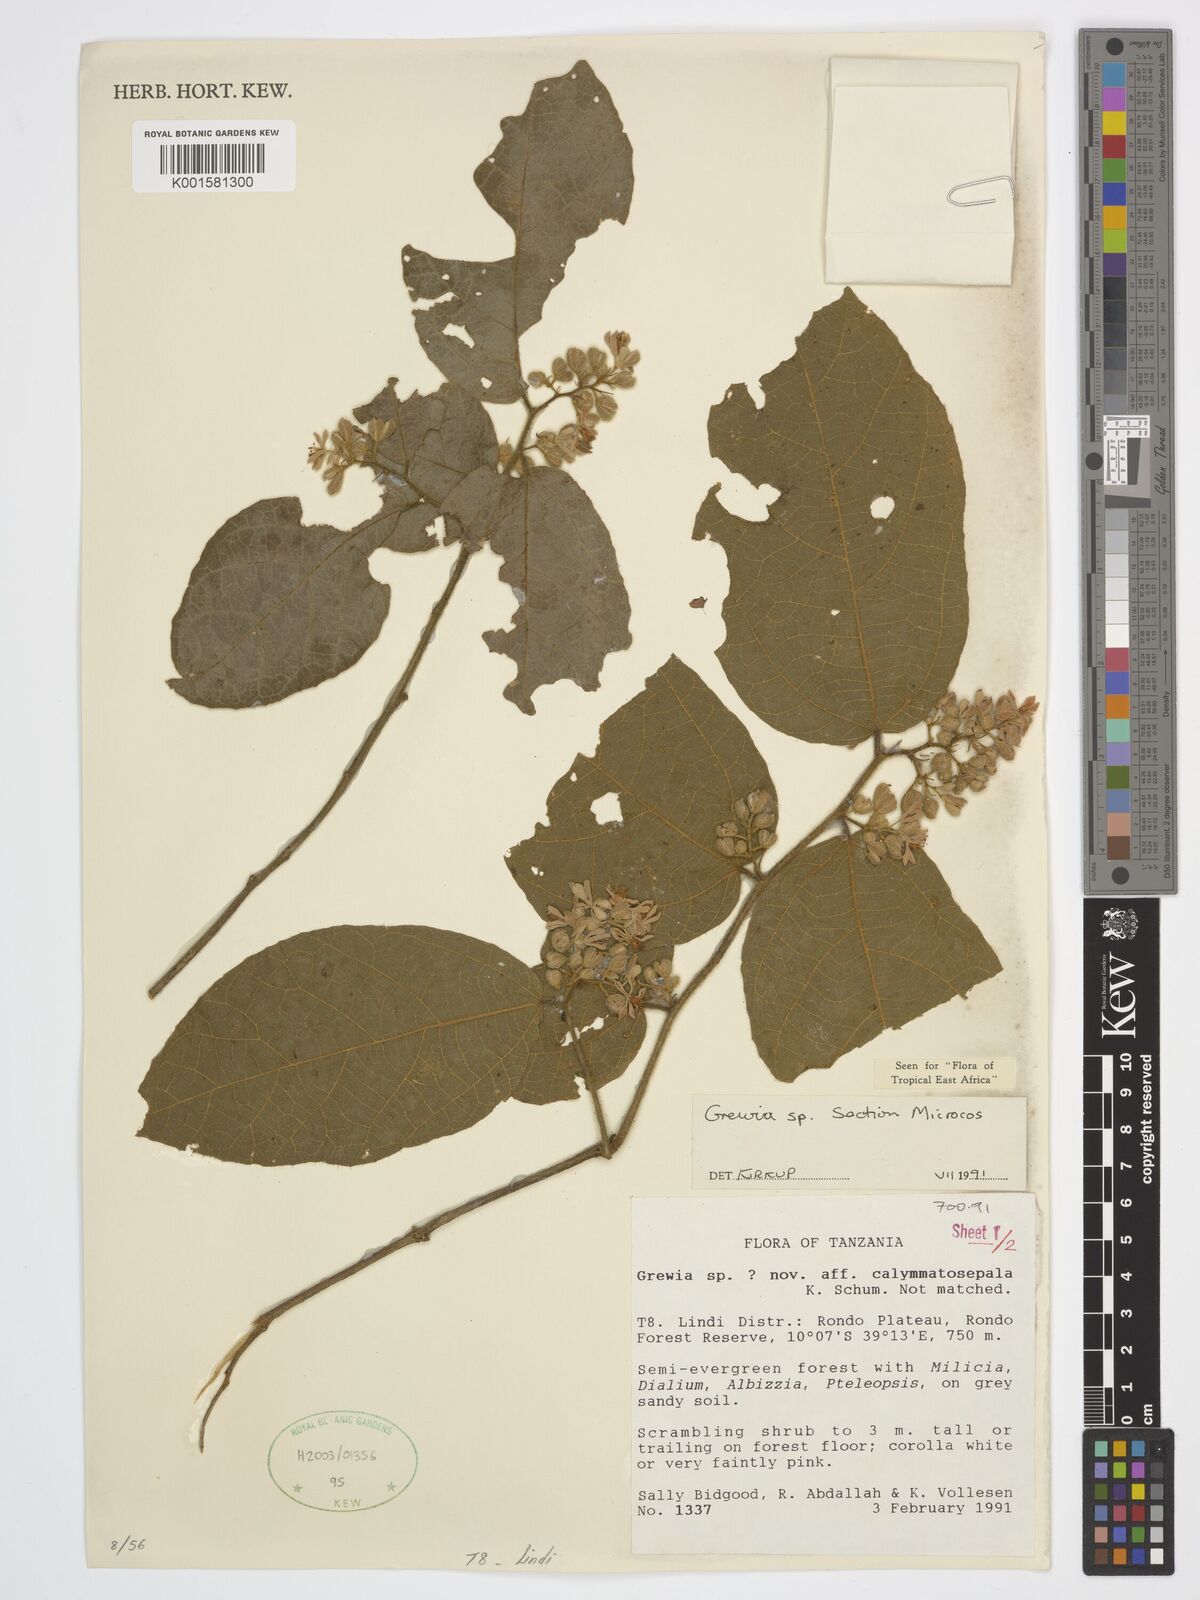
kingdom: Plantae
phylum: Tracheophyta
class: Magnoliopsida
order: Malvales
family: Malvaceae
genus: Grewia
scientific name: Grewia
